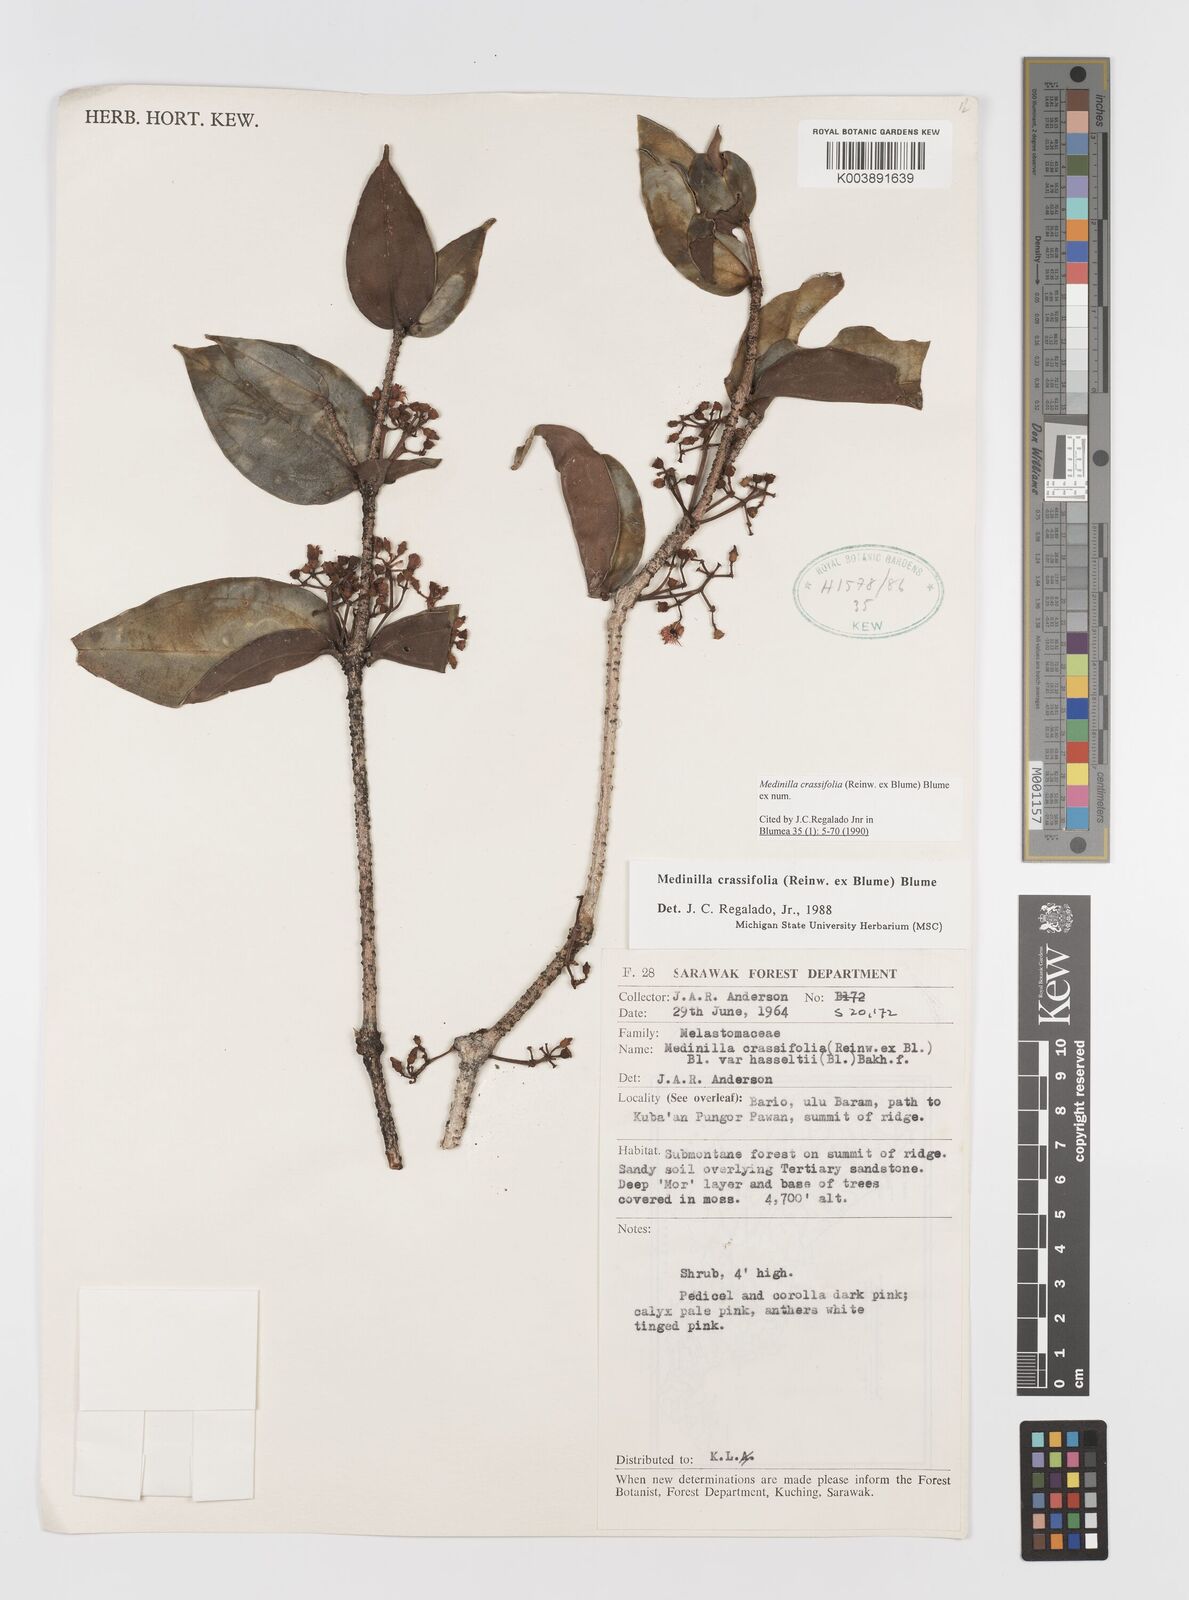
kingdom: Plantae
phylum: Tracheophyta
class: Magnoliopsida
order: Myrtales
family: Melastomataceae
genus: Medinilla
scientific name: Medinilla crassifolia
